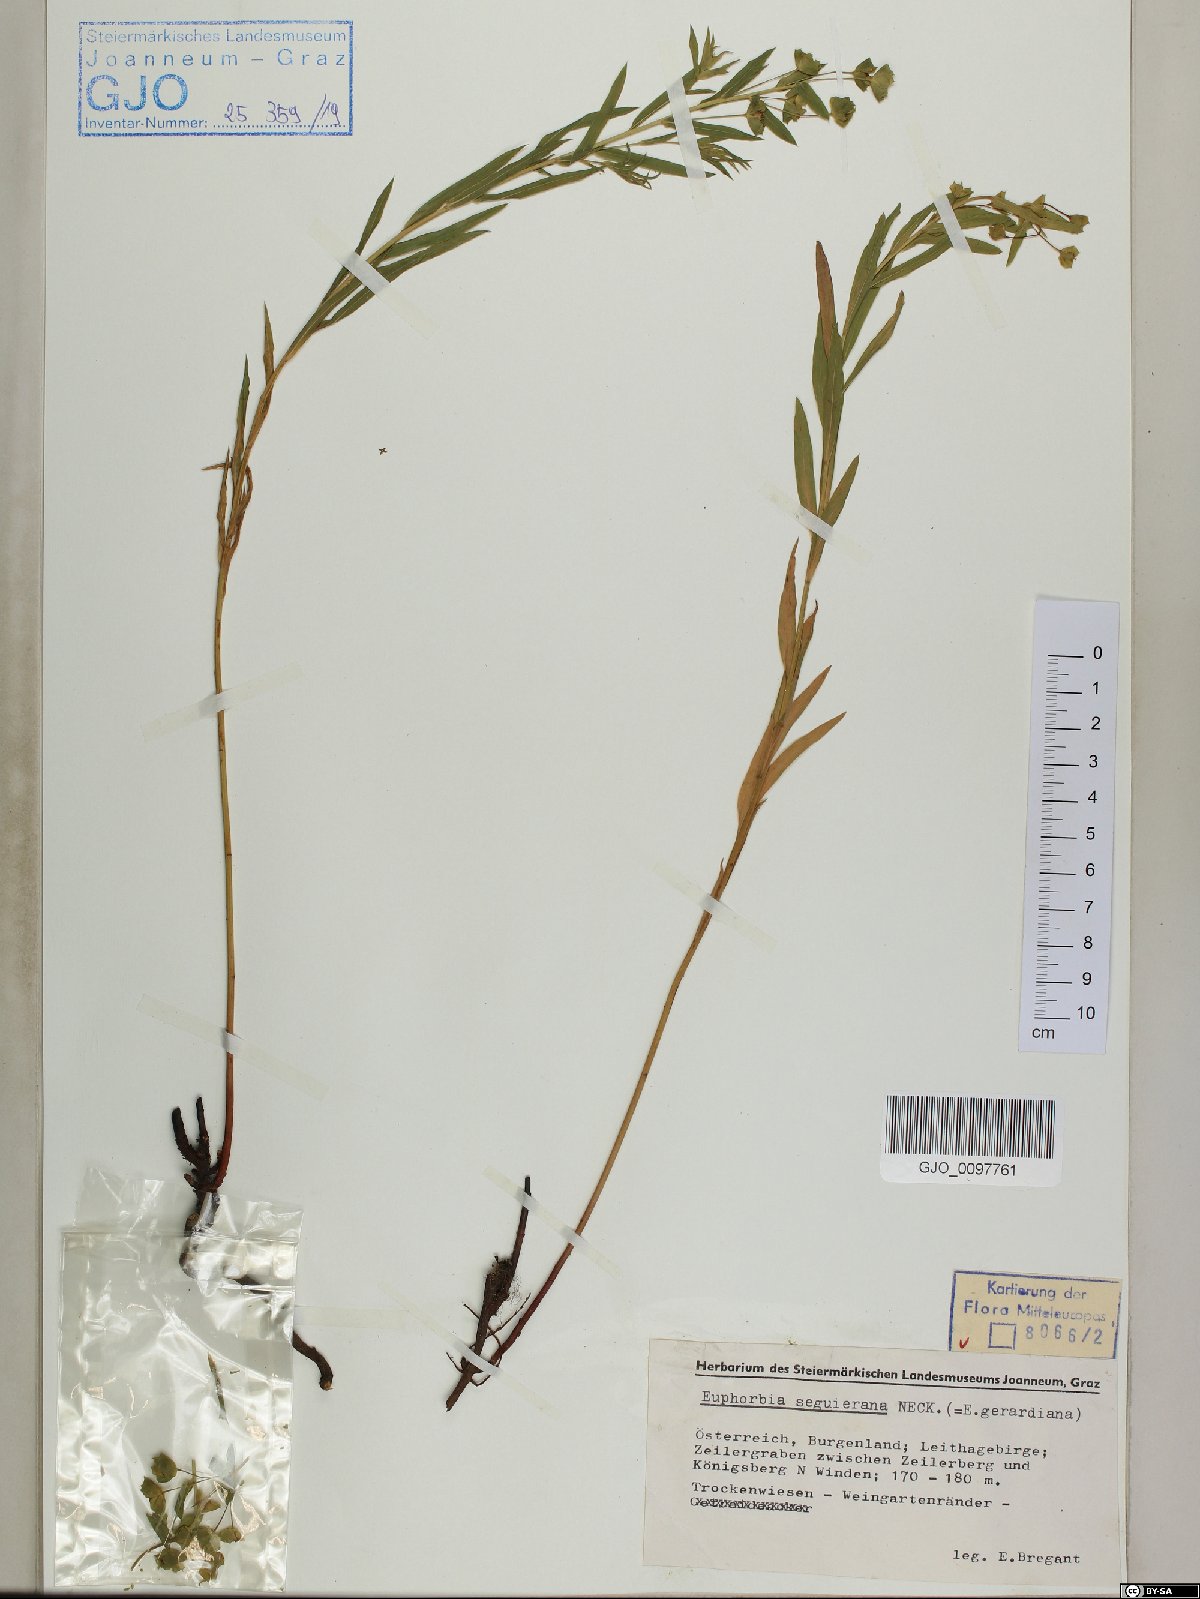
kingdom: Plantae
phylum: Tracheophyta
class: Magnoliopsida
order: Malpighiales
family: Euphorbiaceae
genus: Euphorbia
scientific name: Euphorbia seguieriana
